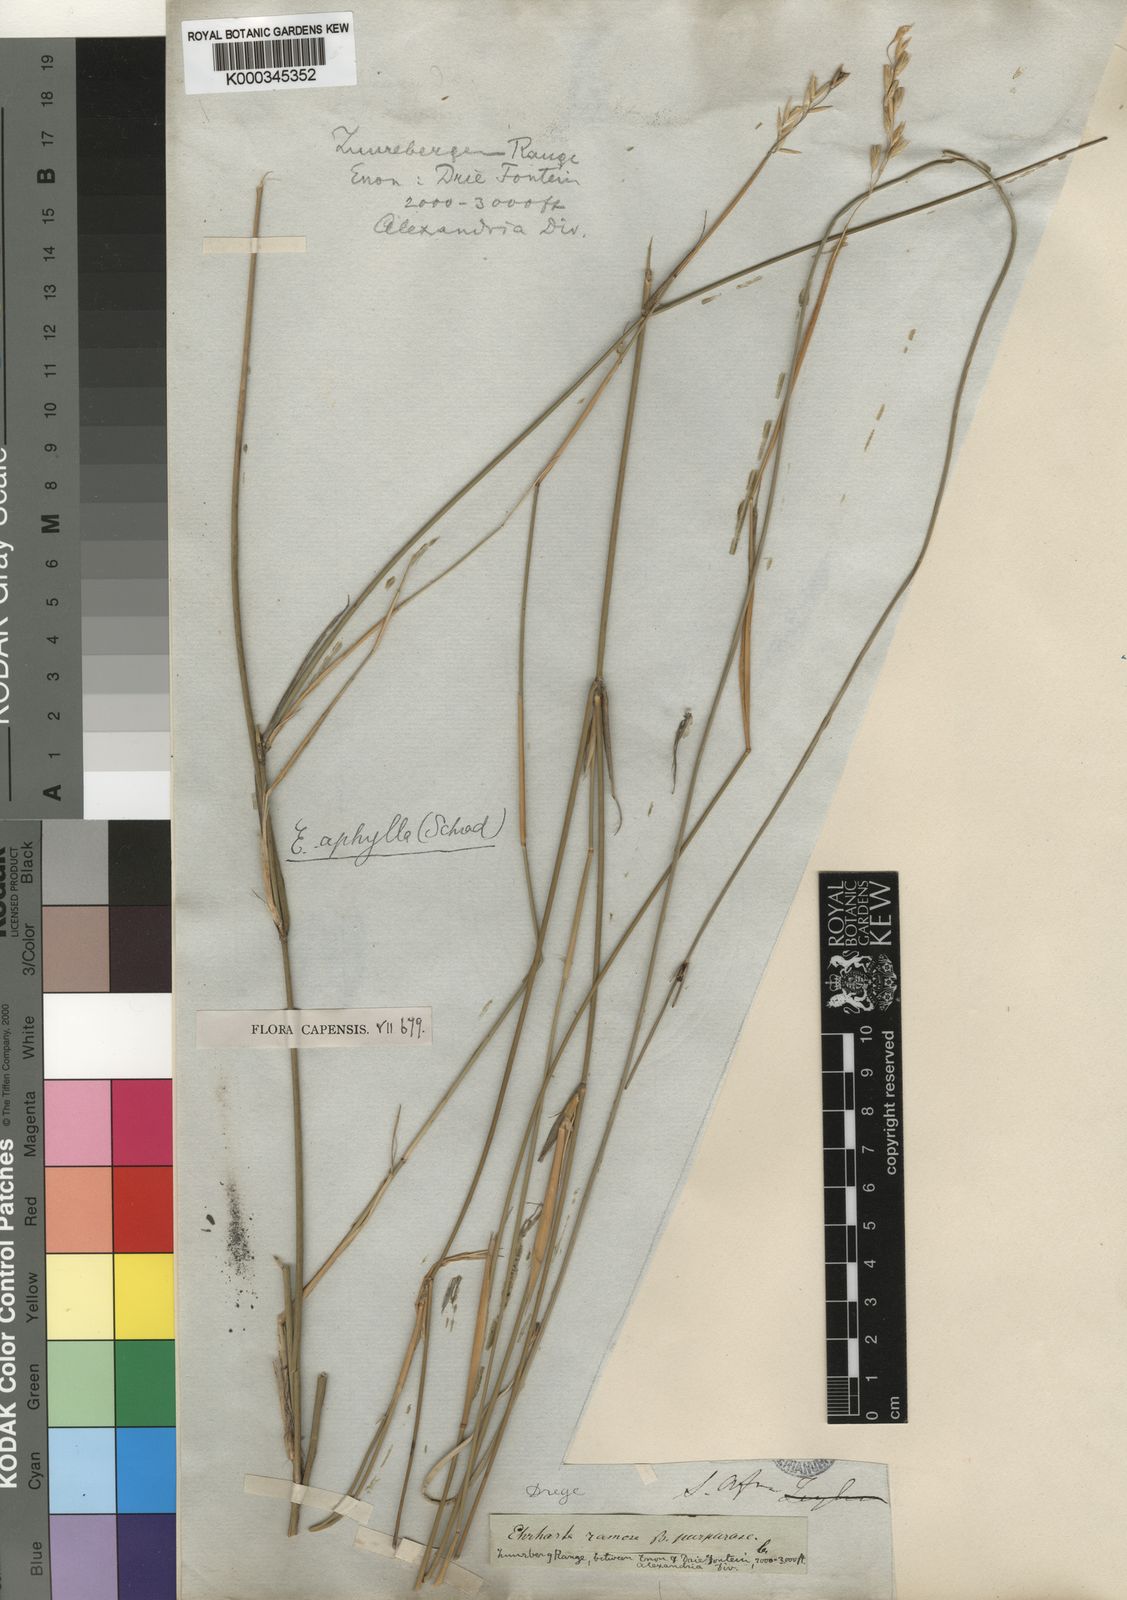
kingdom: Plantae
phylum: Tracheophyta
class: Liliopsida
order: Poales
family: Poaceae
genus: Ehrharta
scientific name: Ehrharta ramosa
